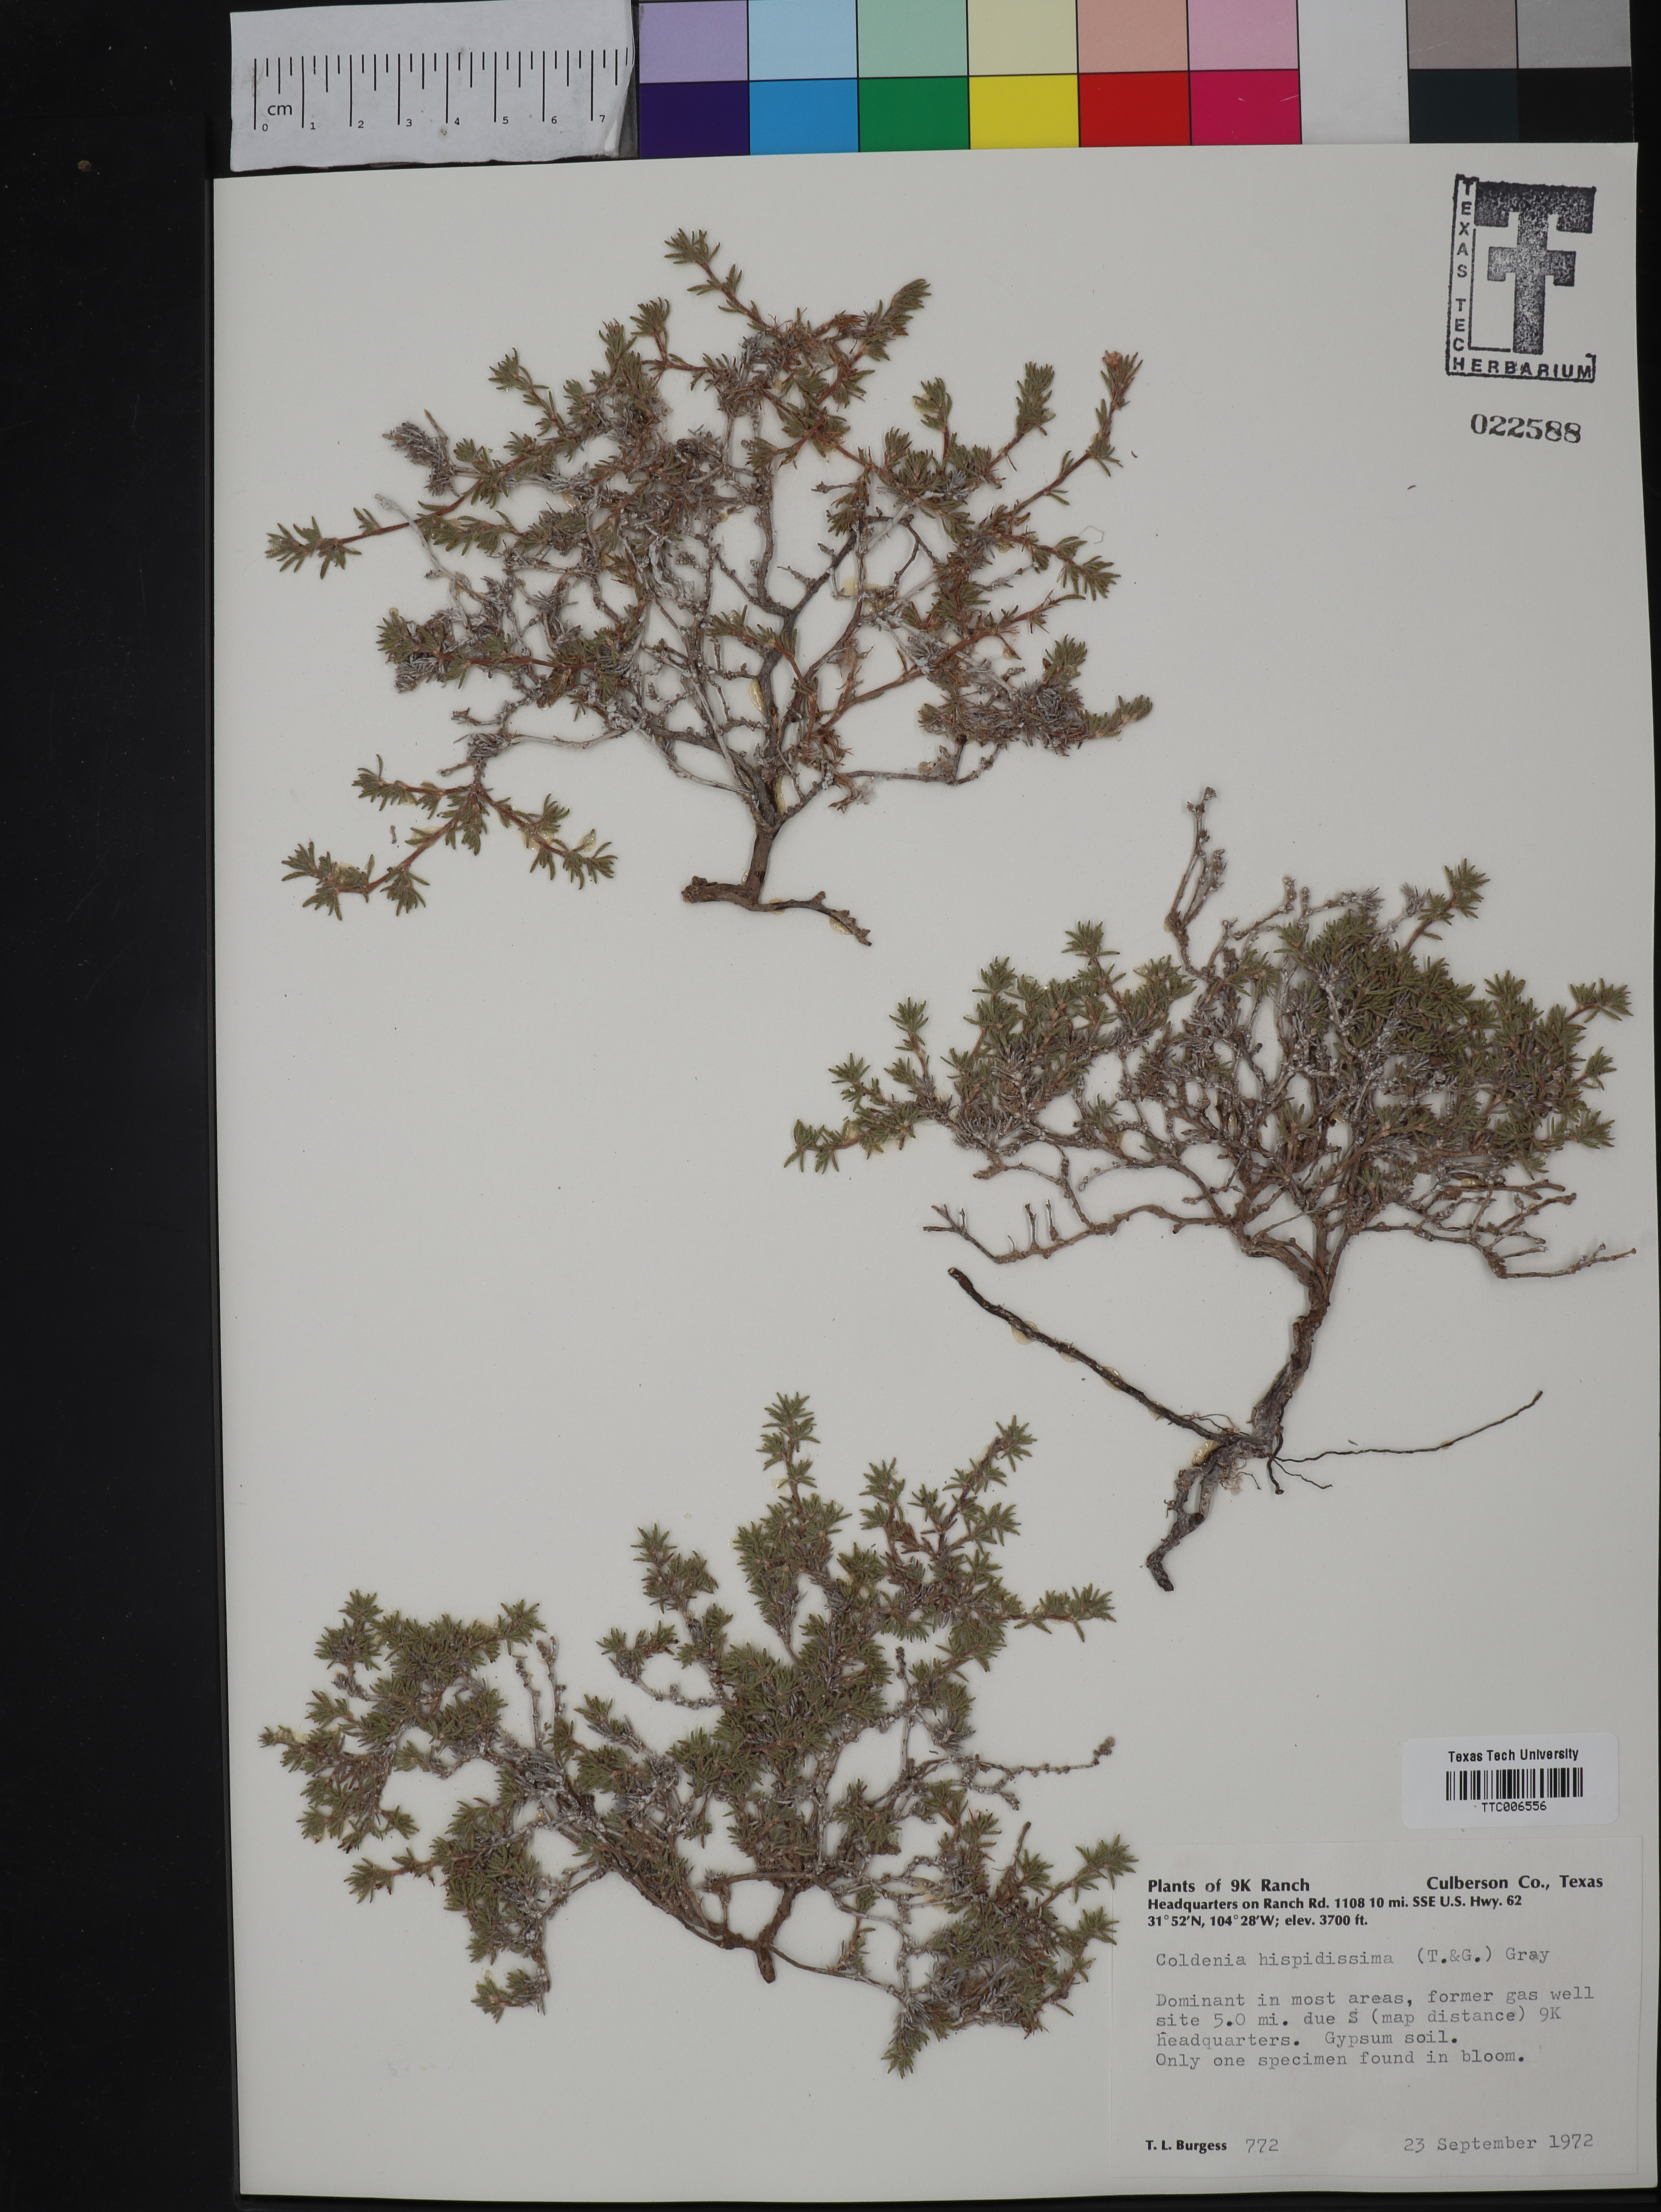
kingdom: Plantae
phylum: Tracheophyta
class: Magnoliopsida
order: Boraginales
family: Ehretiaceae
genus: Tiquilia
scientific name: Tiquilia hispidissima
